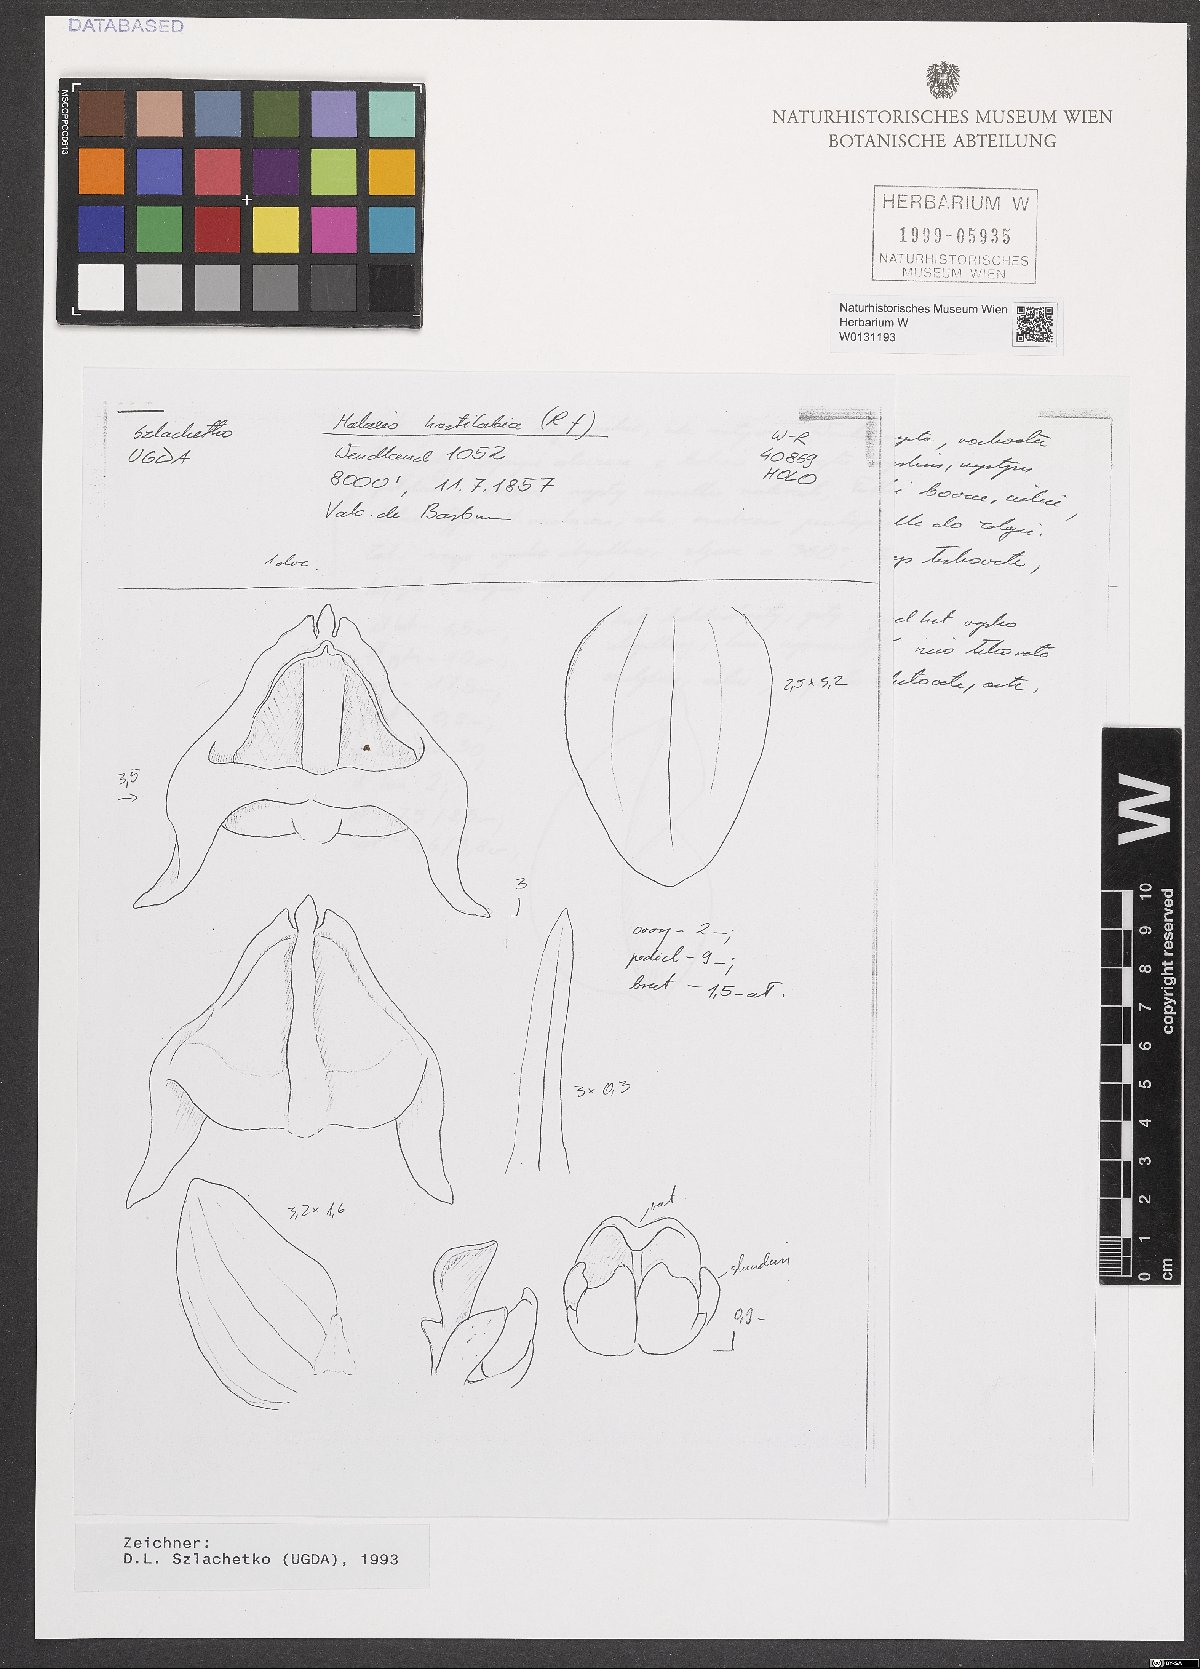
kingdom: Plantae
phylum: Tracheophyta
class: Liliopsida
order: Asparagales
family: Orchidaceae
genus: Malaxis
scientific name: Malaxis excavata
